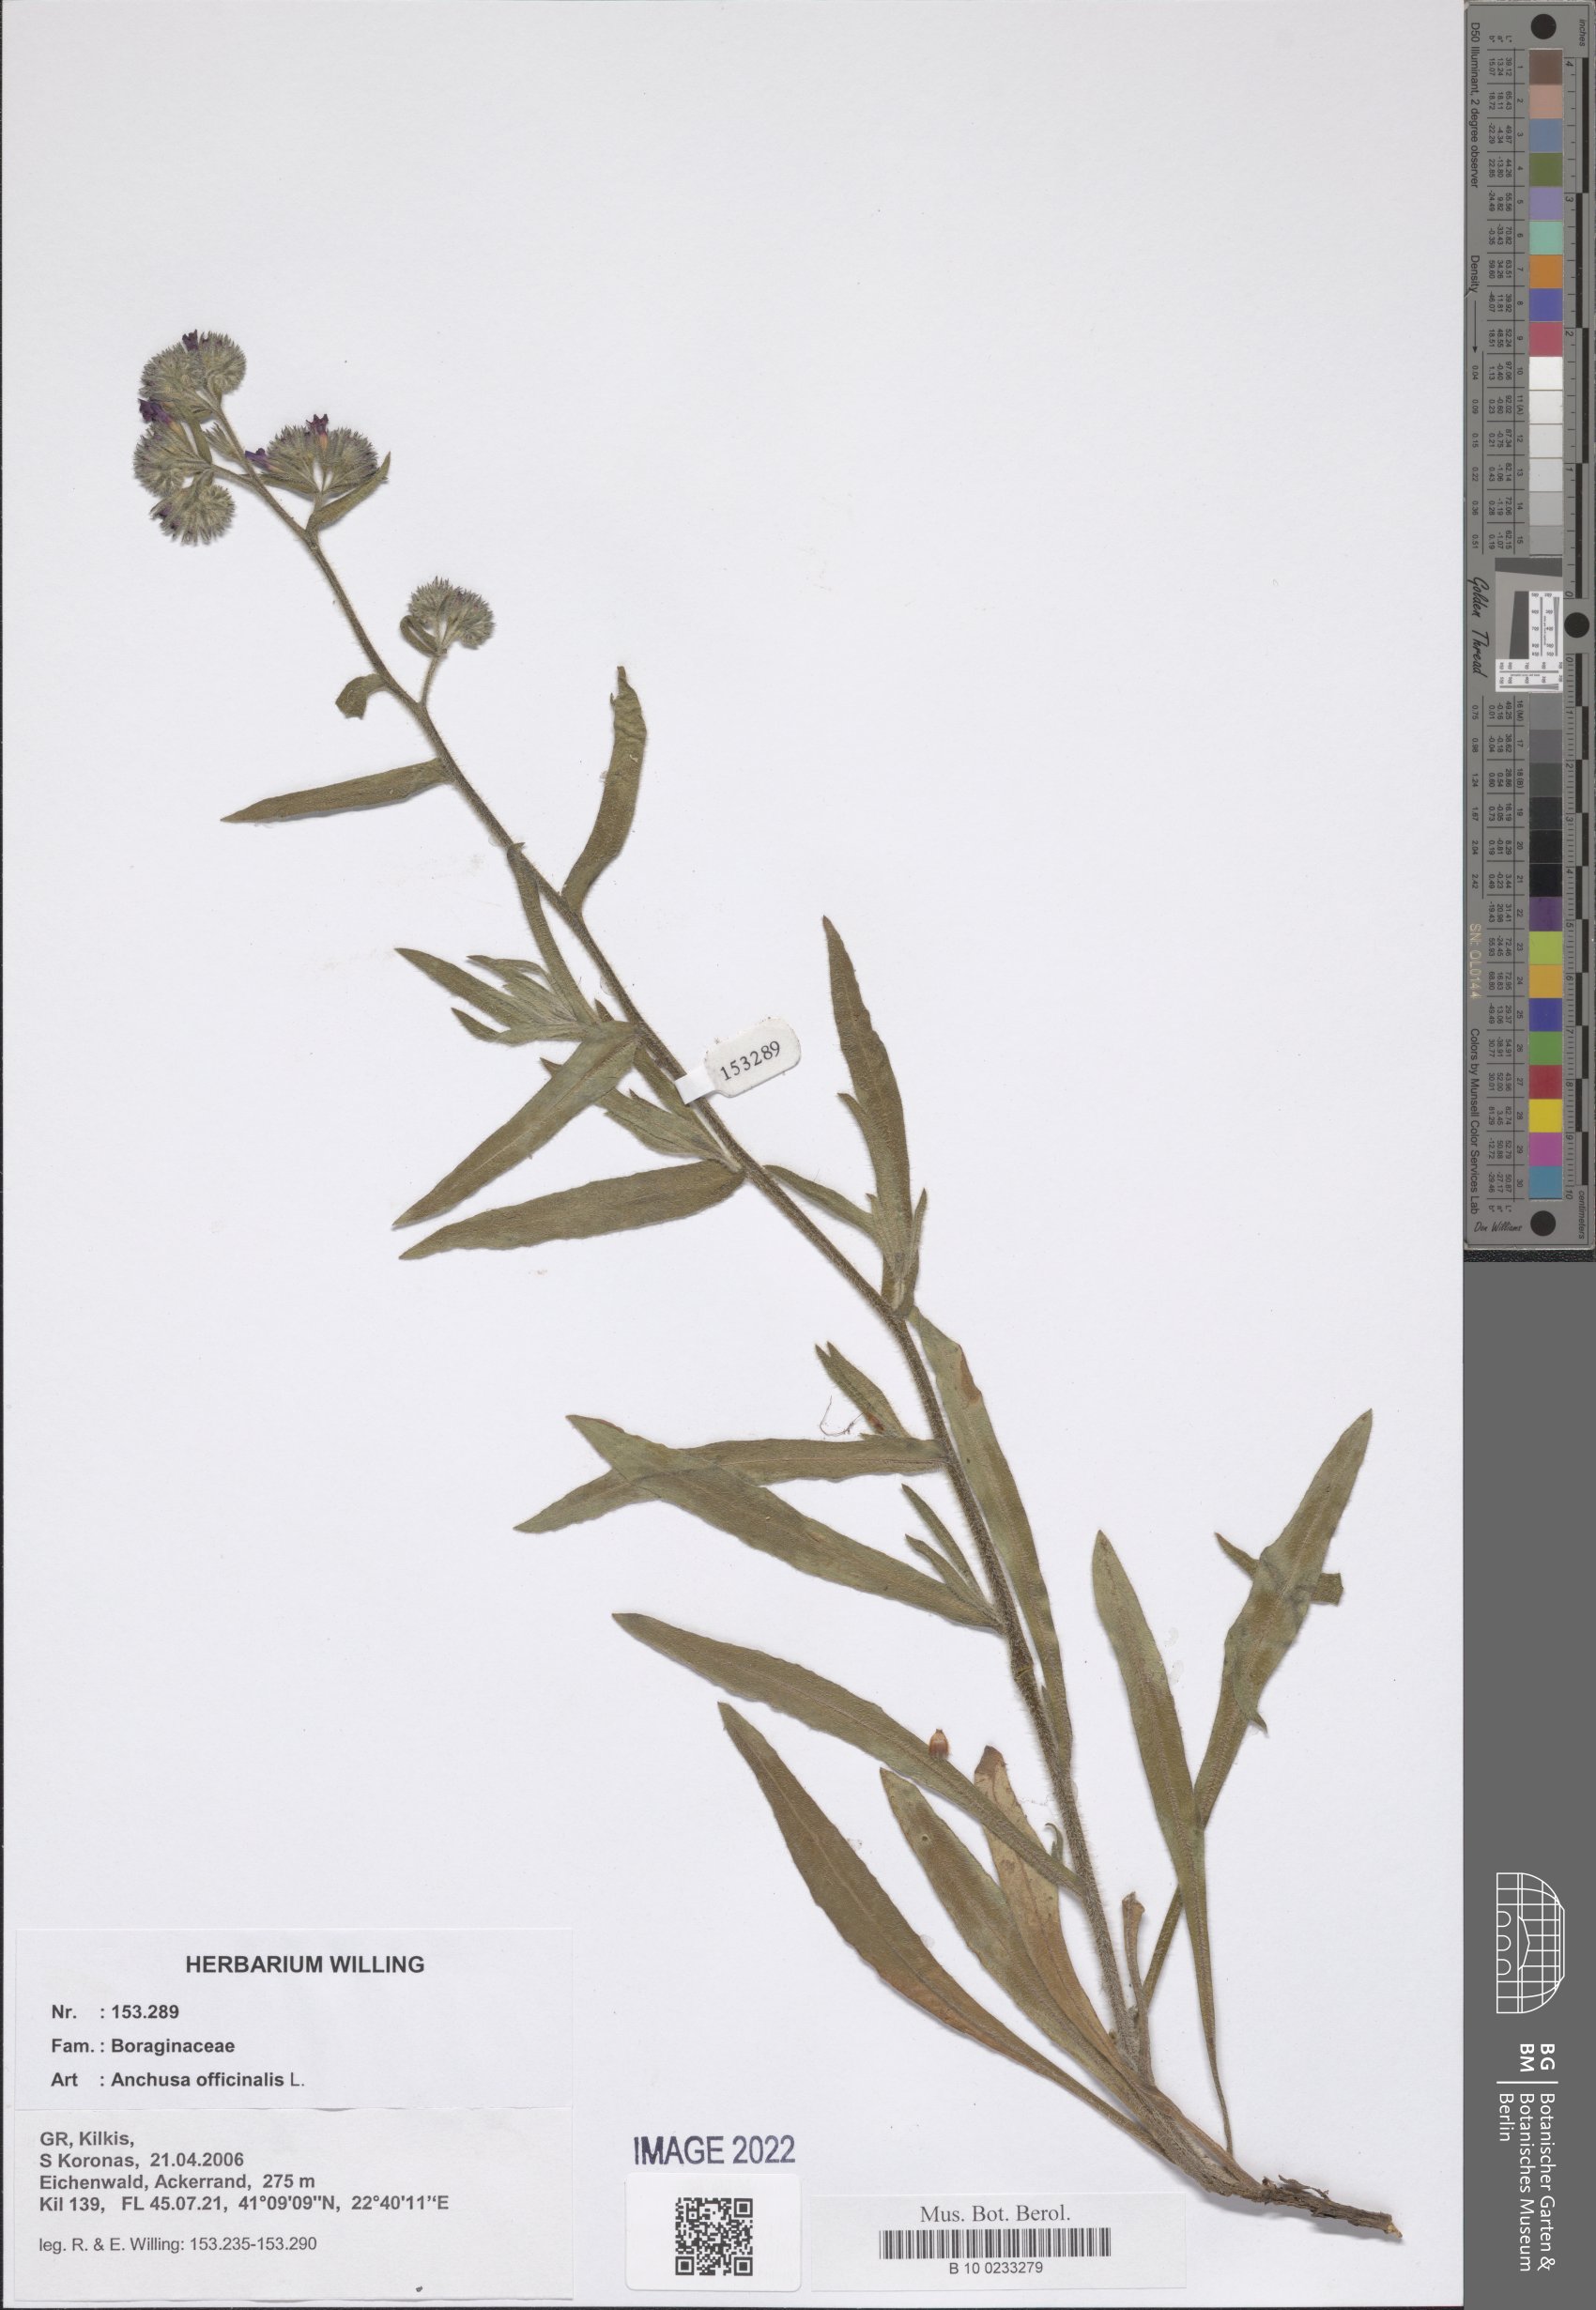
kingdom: Plantae
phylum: Tracheophyta
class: Magnoliopsida
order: Boraginales
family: Boraginaceae
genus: Anchusa
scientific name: Anchusa officinalis
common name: Alkanet
